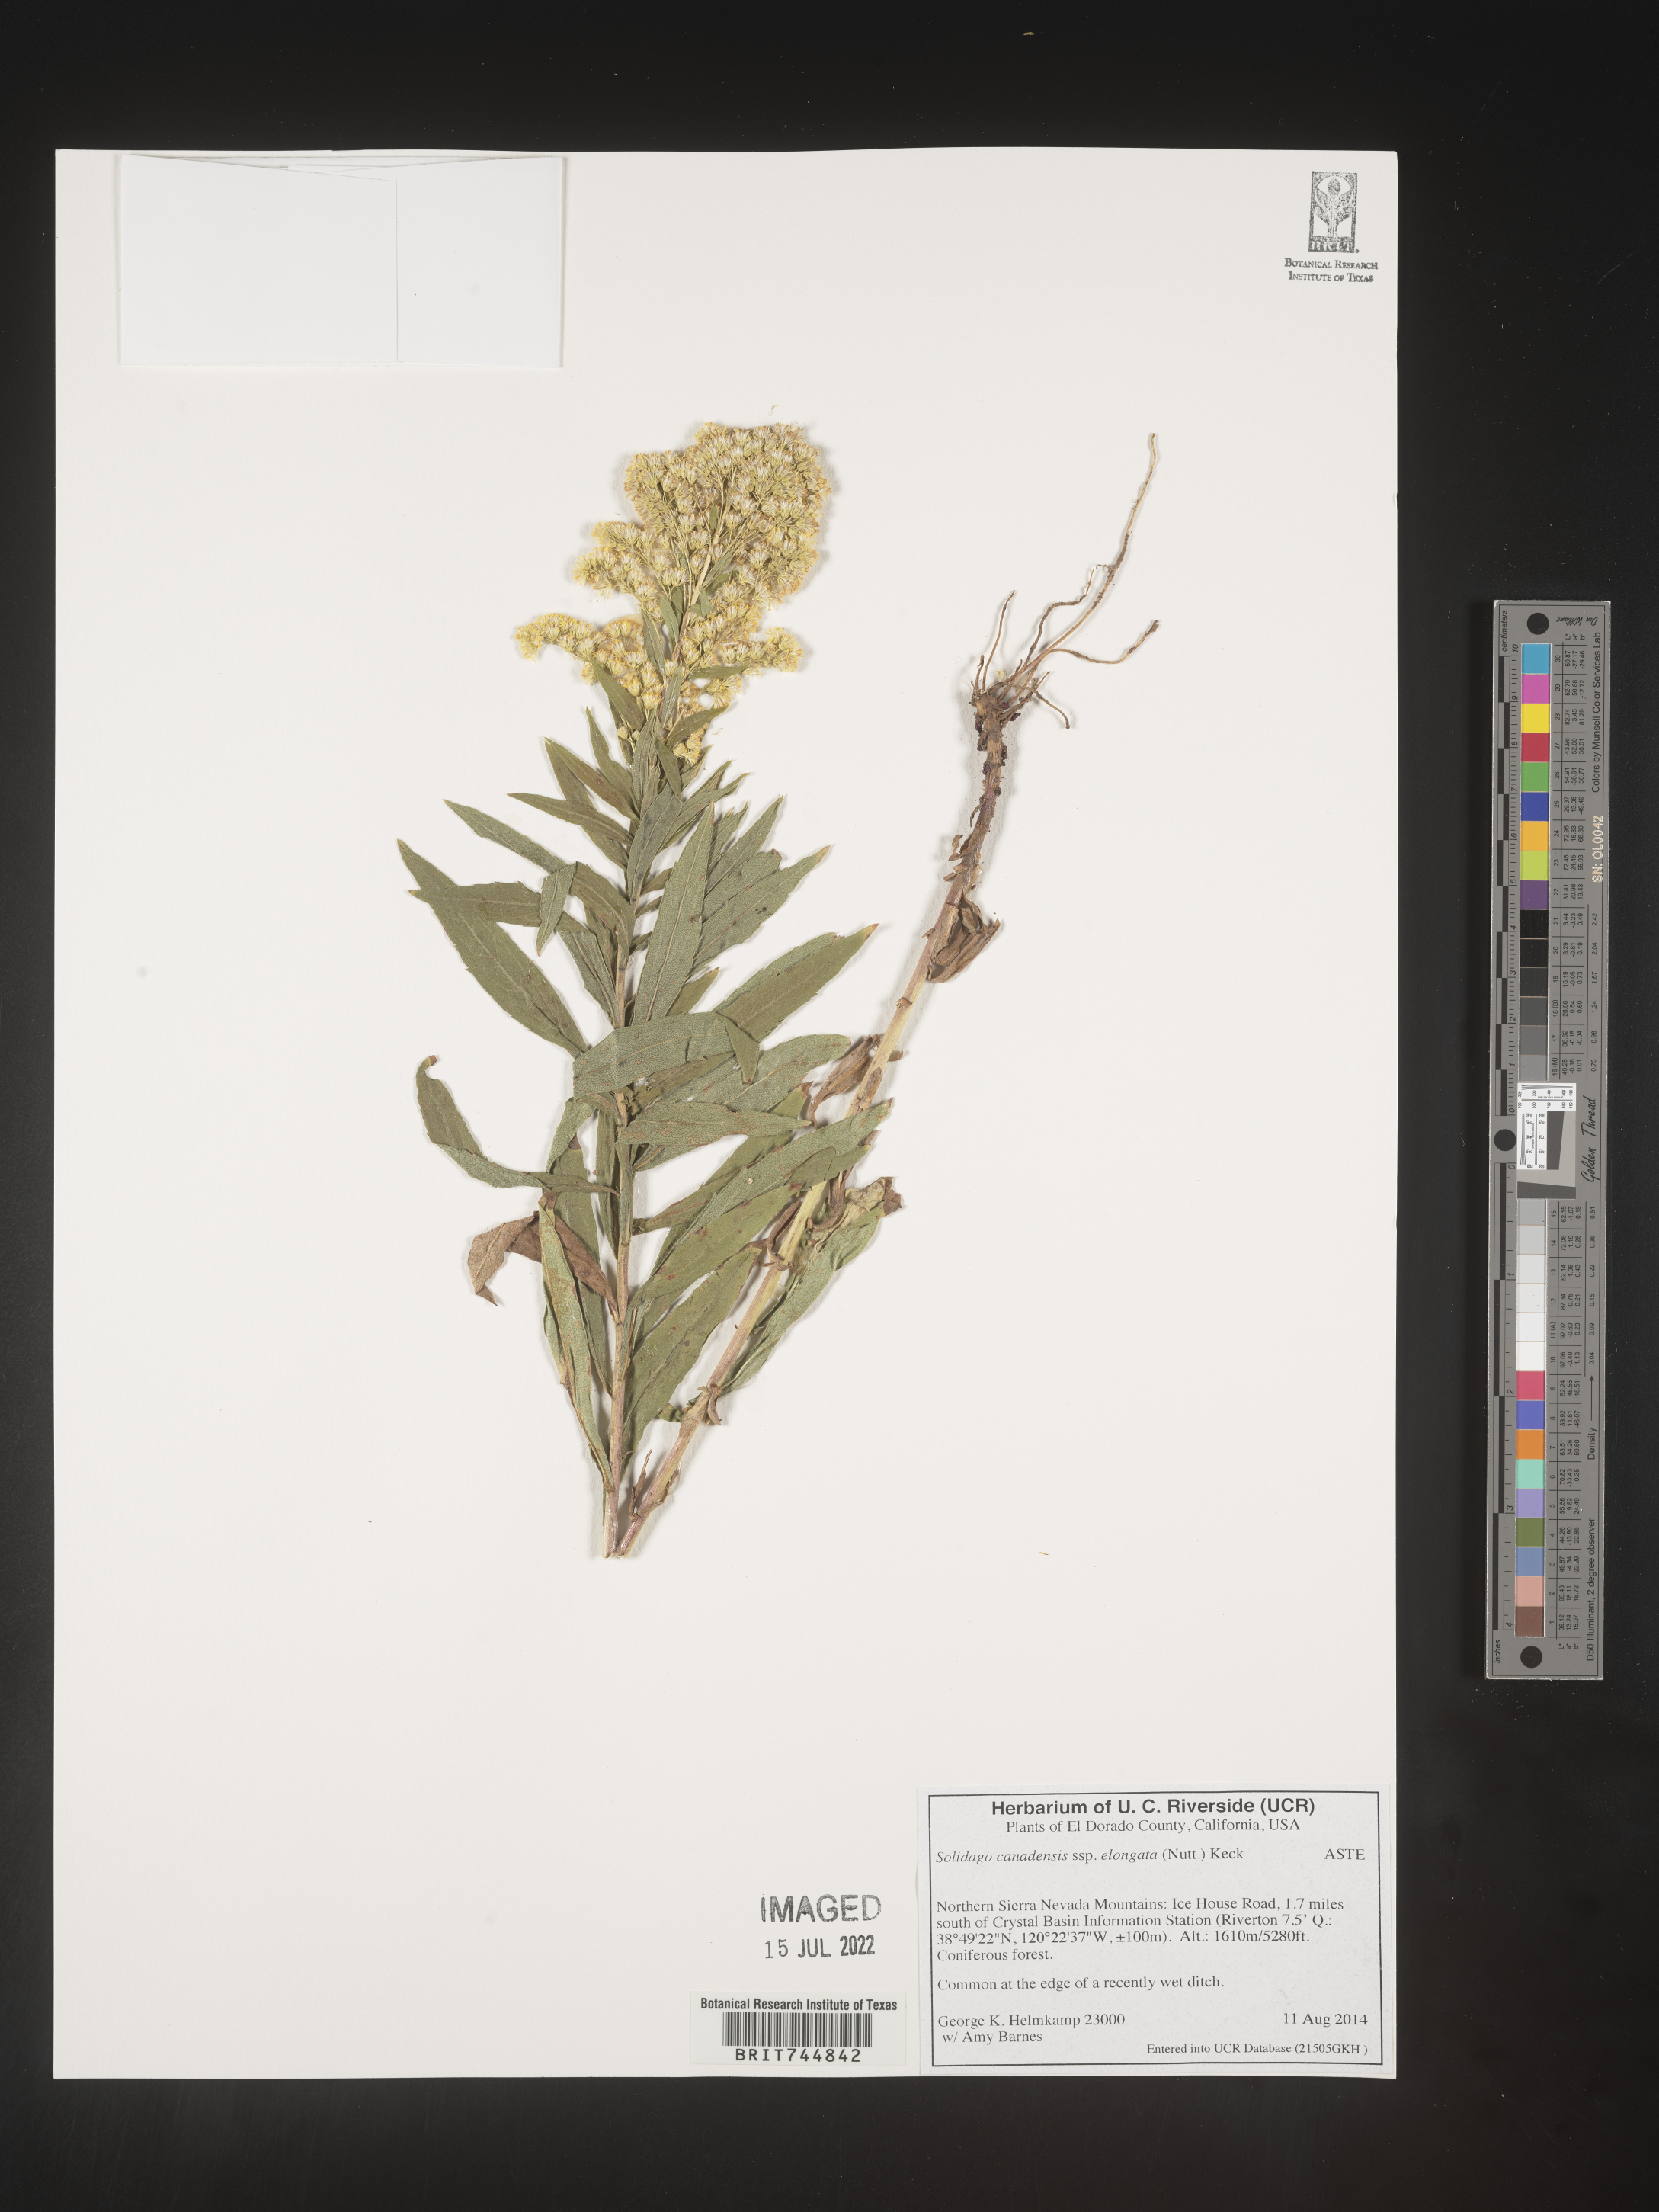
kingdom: Plantae
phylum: Tracheophyta
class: Magnoliopsida
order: Asterales
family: Asteraceae
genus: Solidago
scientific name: Solidago canadensis
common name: Canada goldenrod
